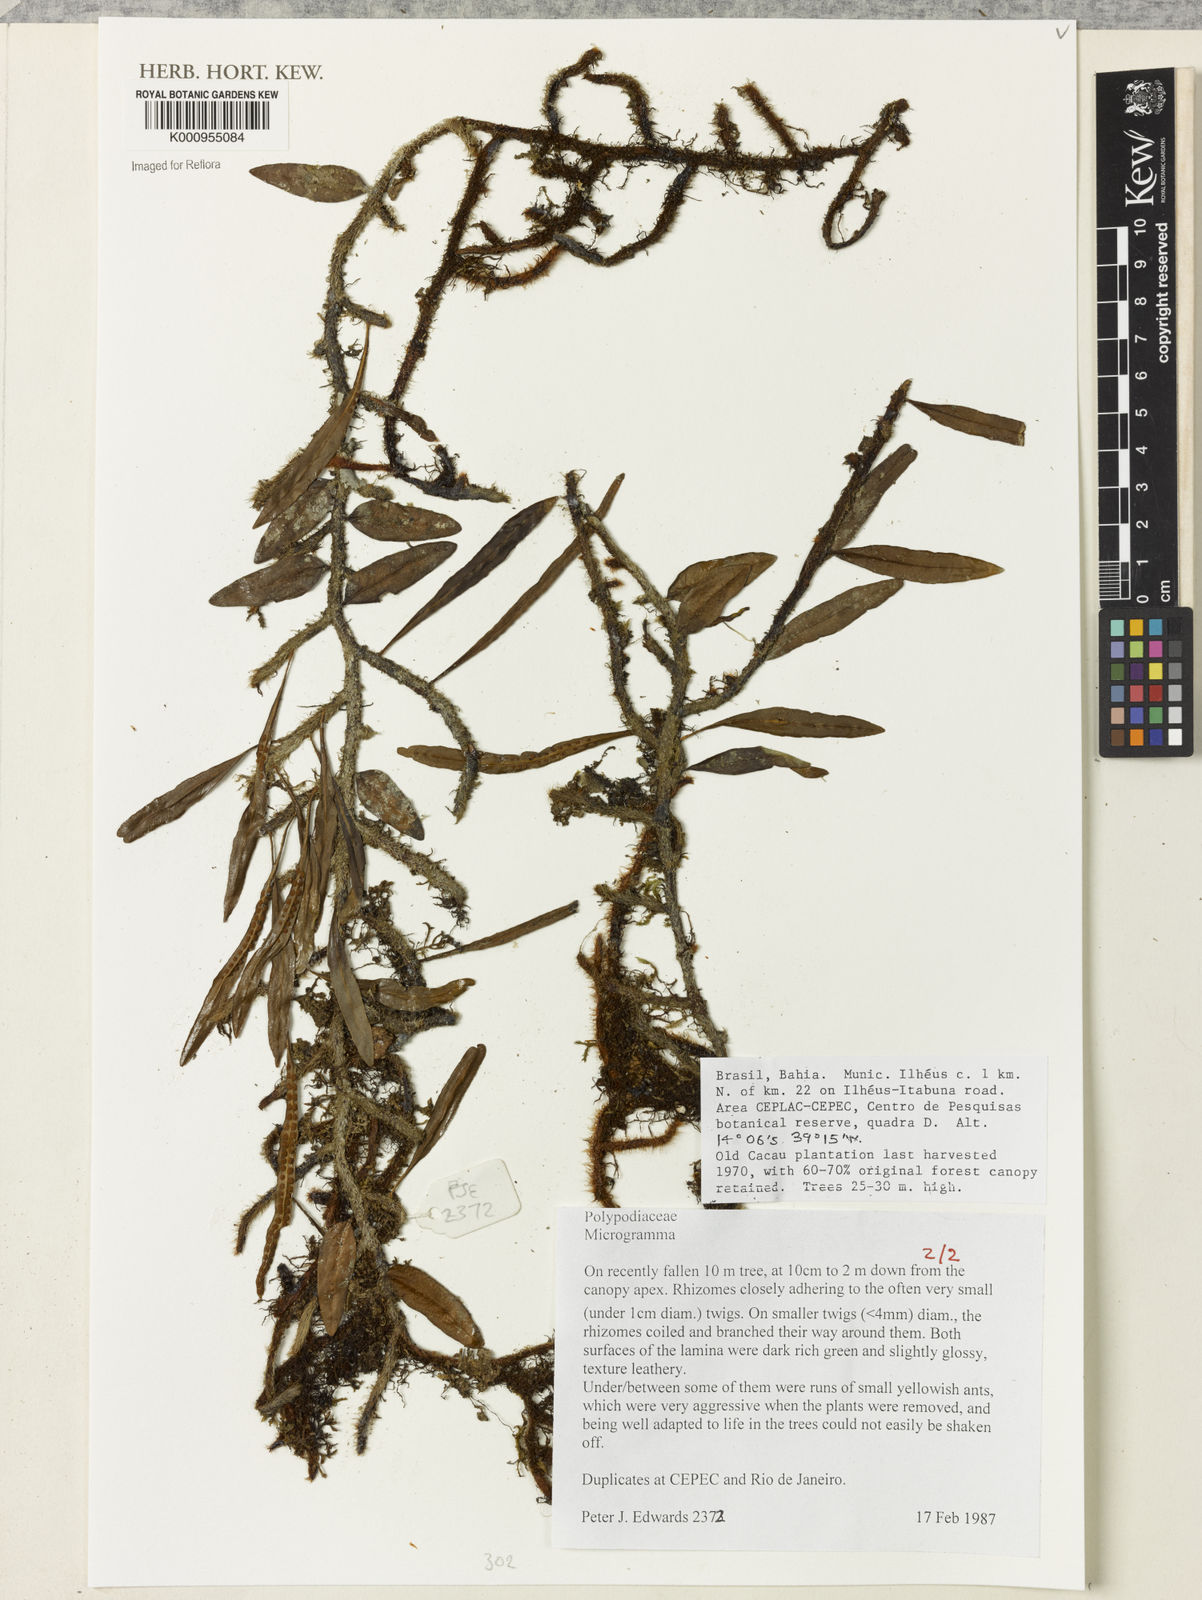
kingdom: Plantae
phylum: Tracheophyta
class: Polypodiopsida
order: Polypodiales
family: Polypodiaceae
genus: Microgramma
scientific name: Microgramma
